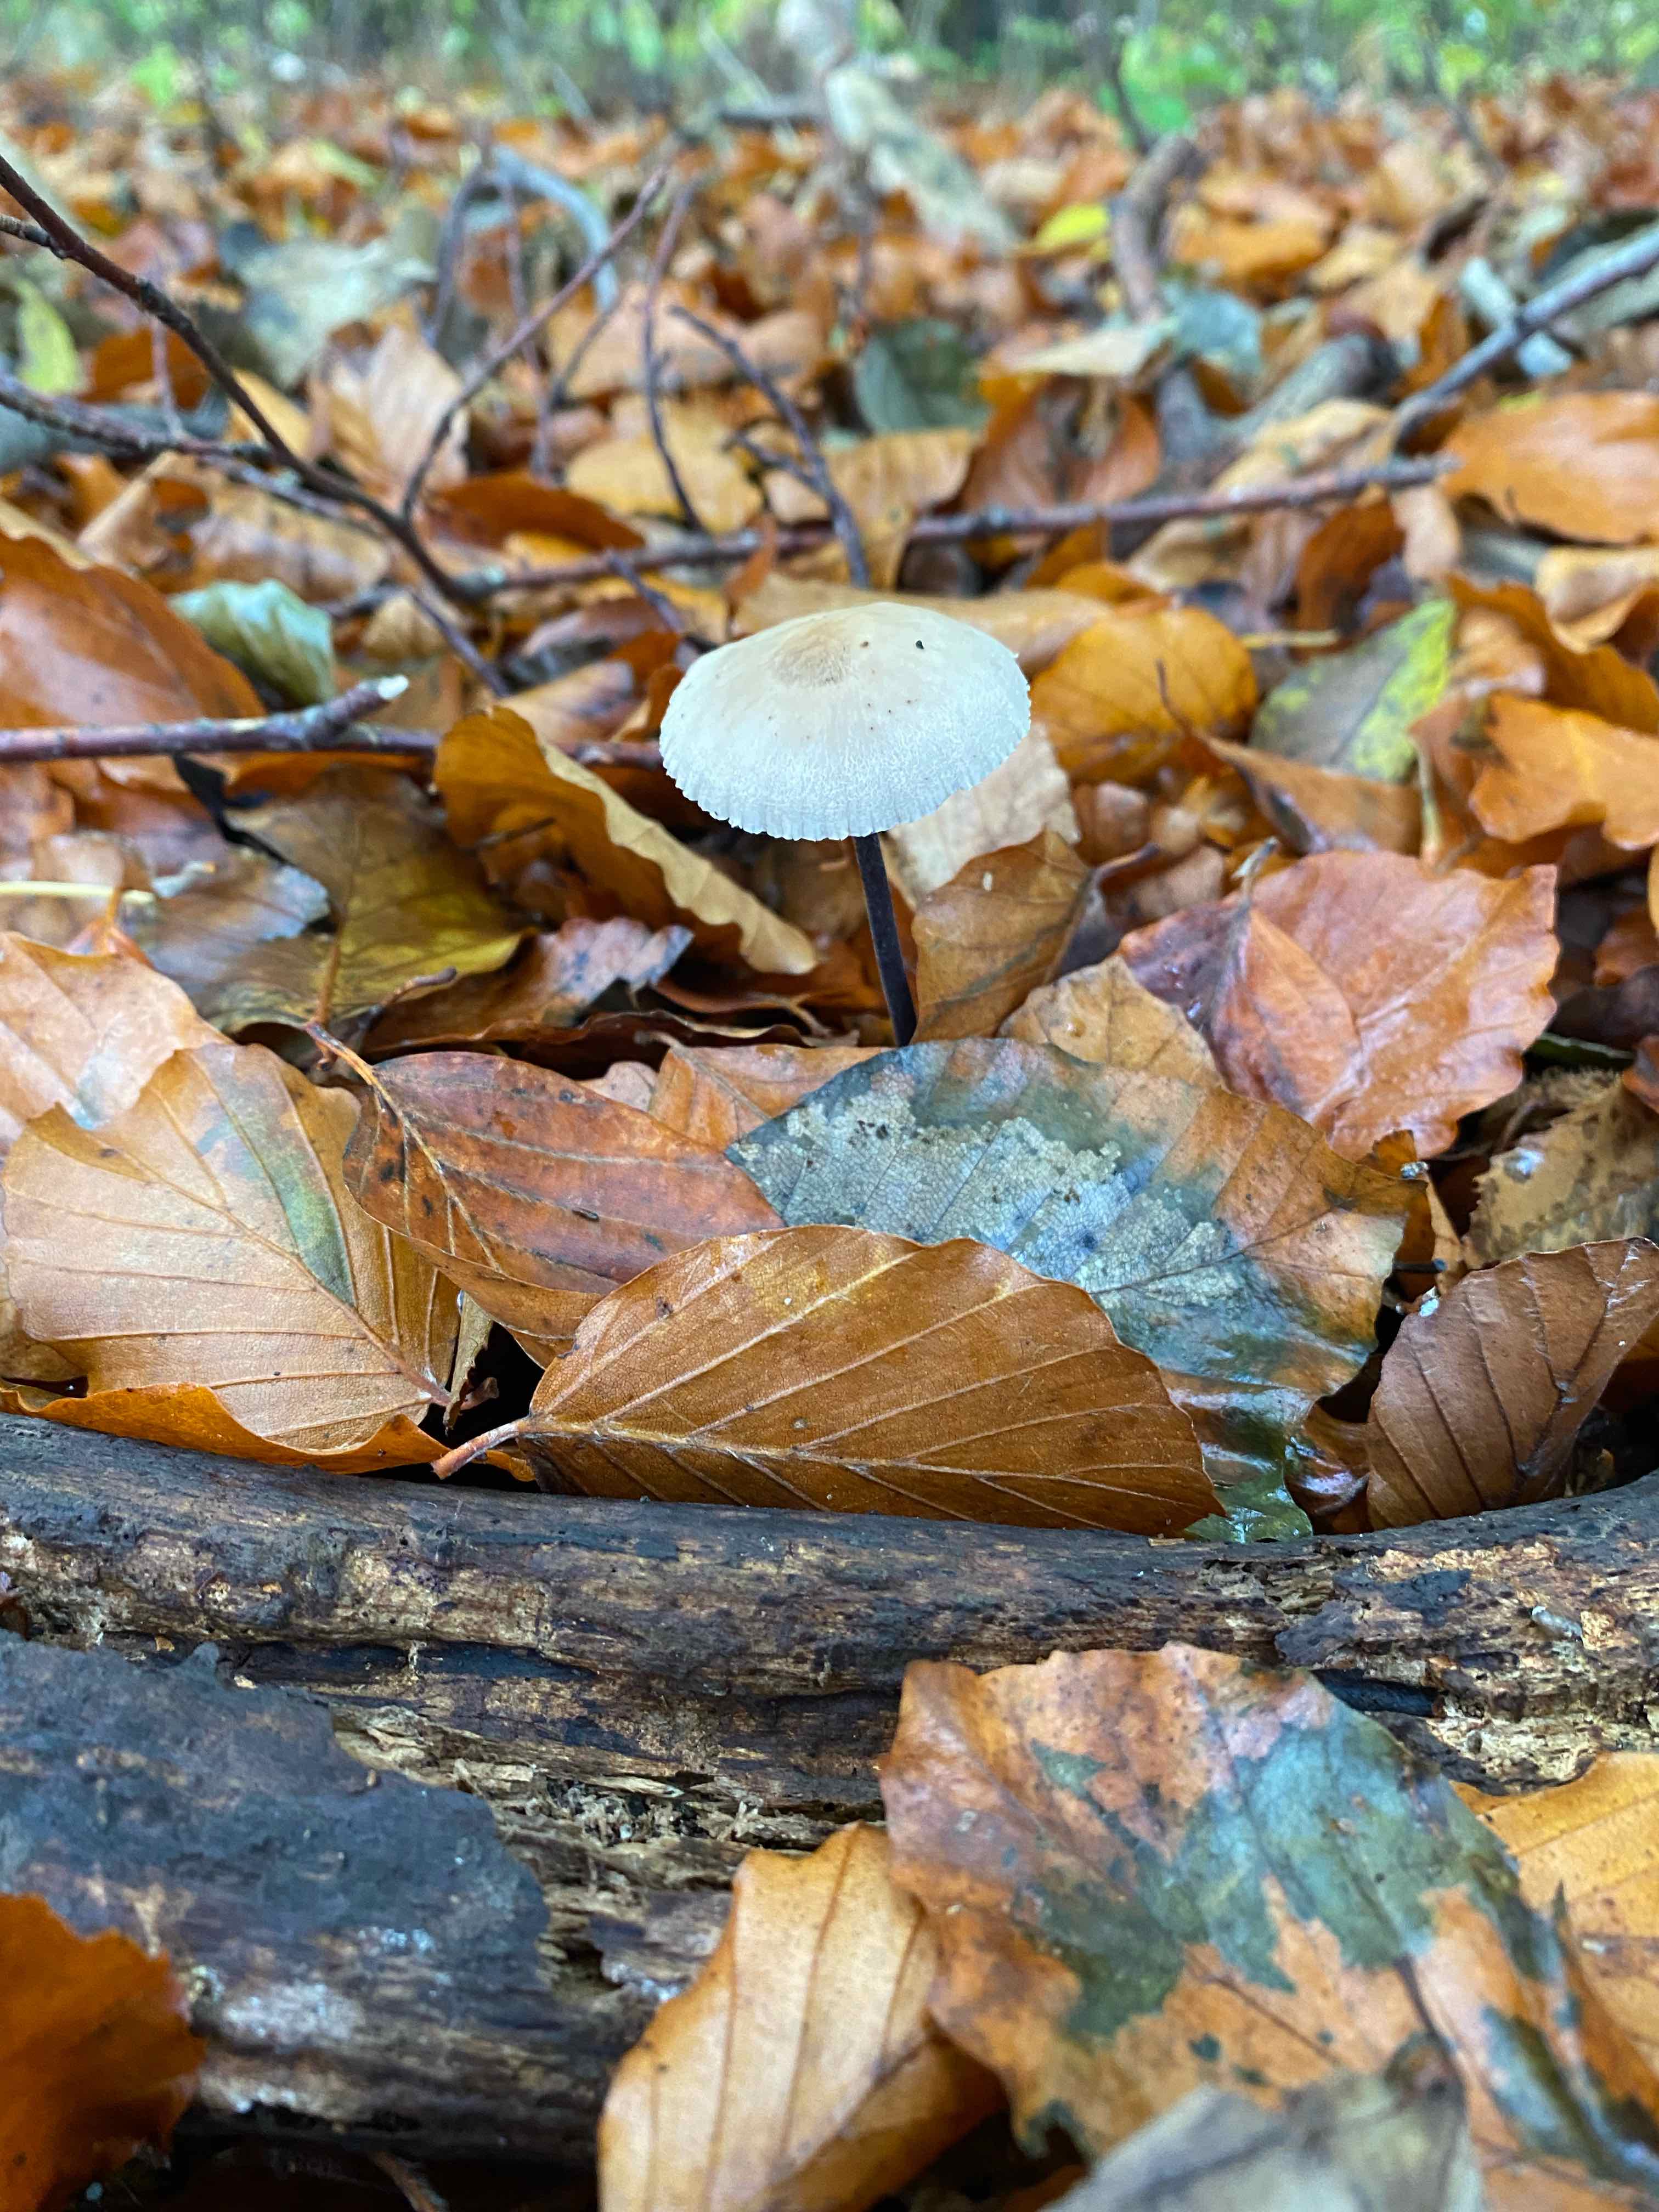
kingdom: Fungi
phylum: Basidiomycota
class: Agaricomycetes
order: Agaricales
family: Omphalotaceae
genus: Mycetinis
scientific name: Mycetinis alliaceus
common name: stor løghat
